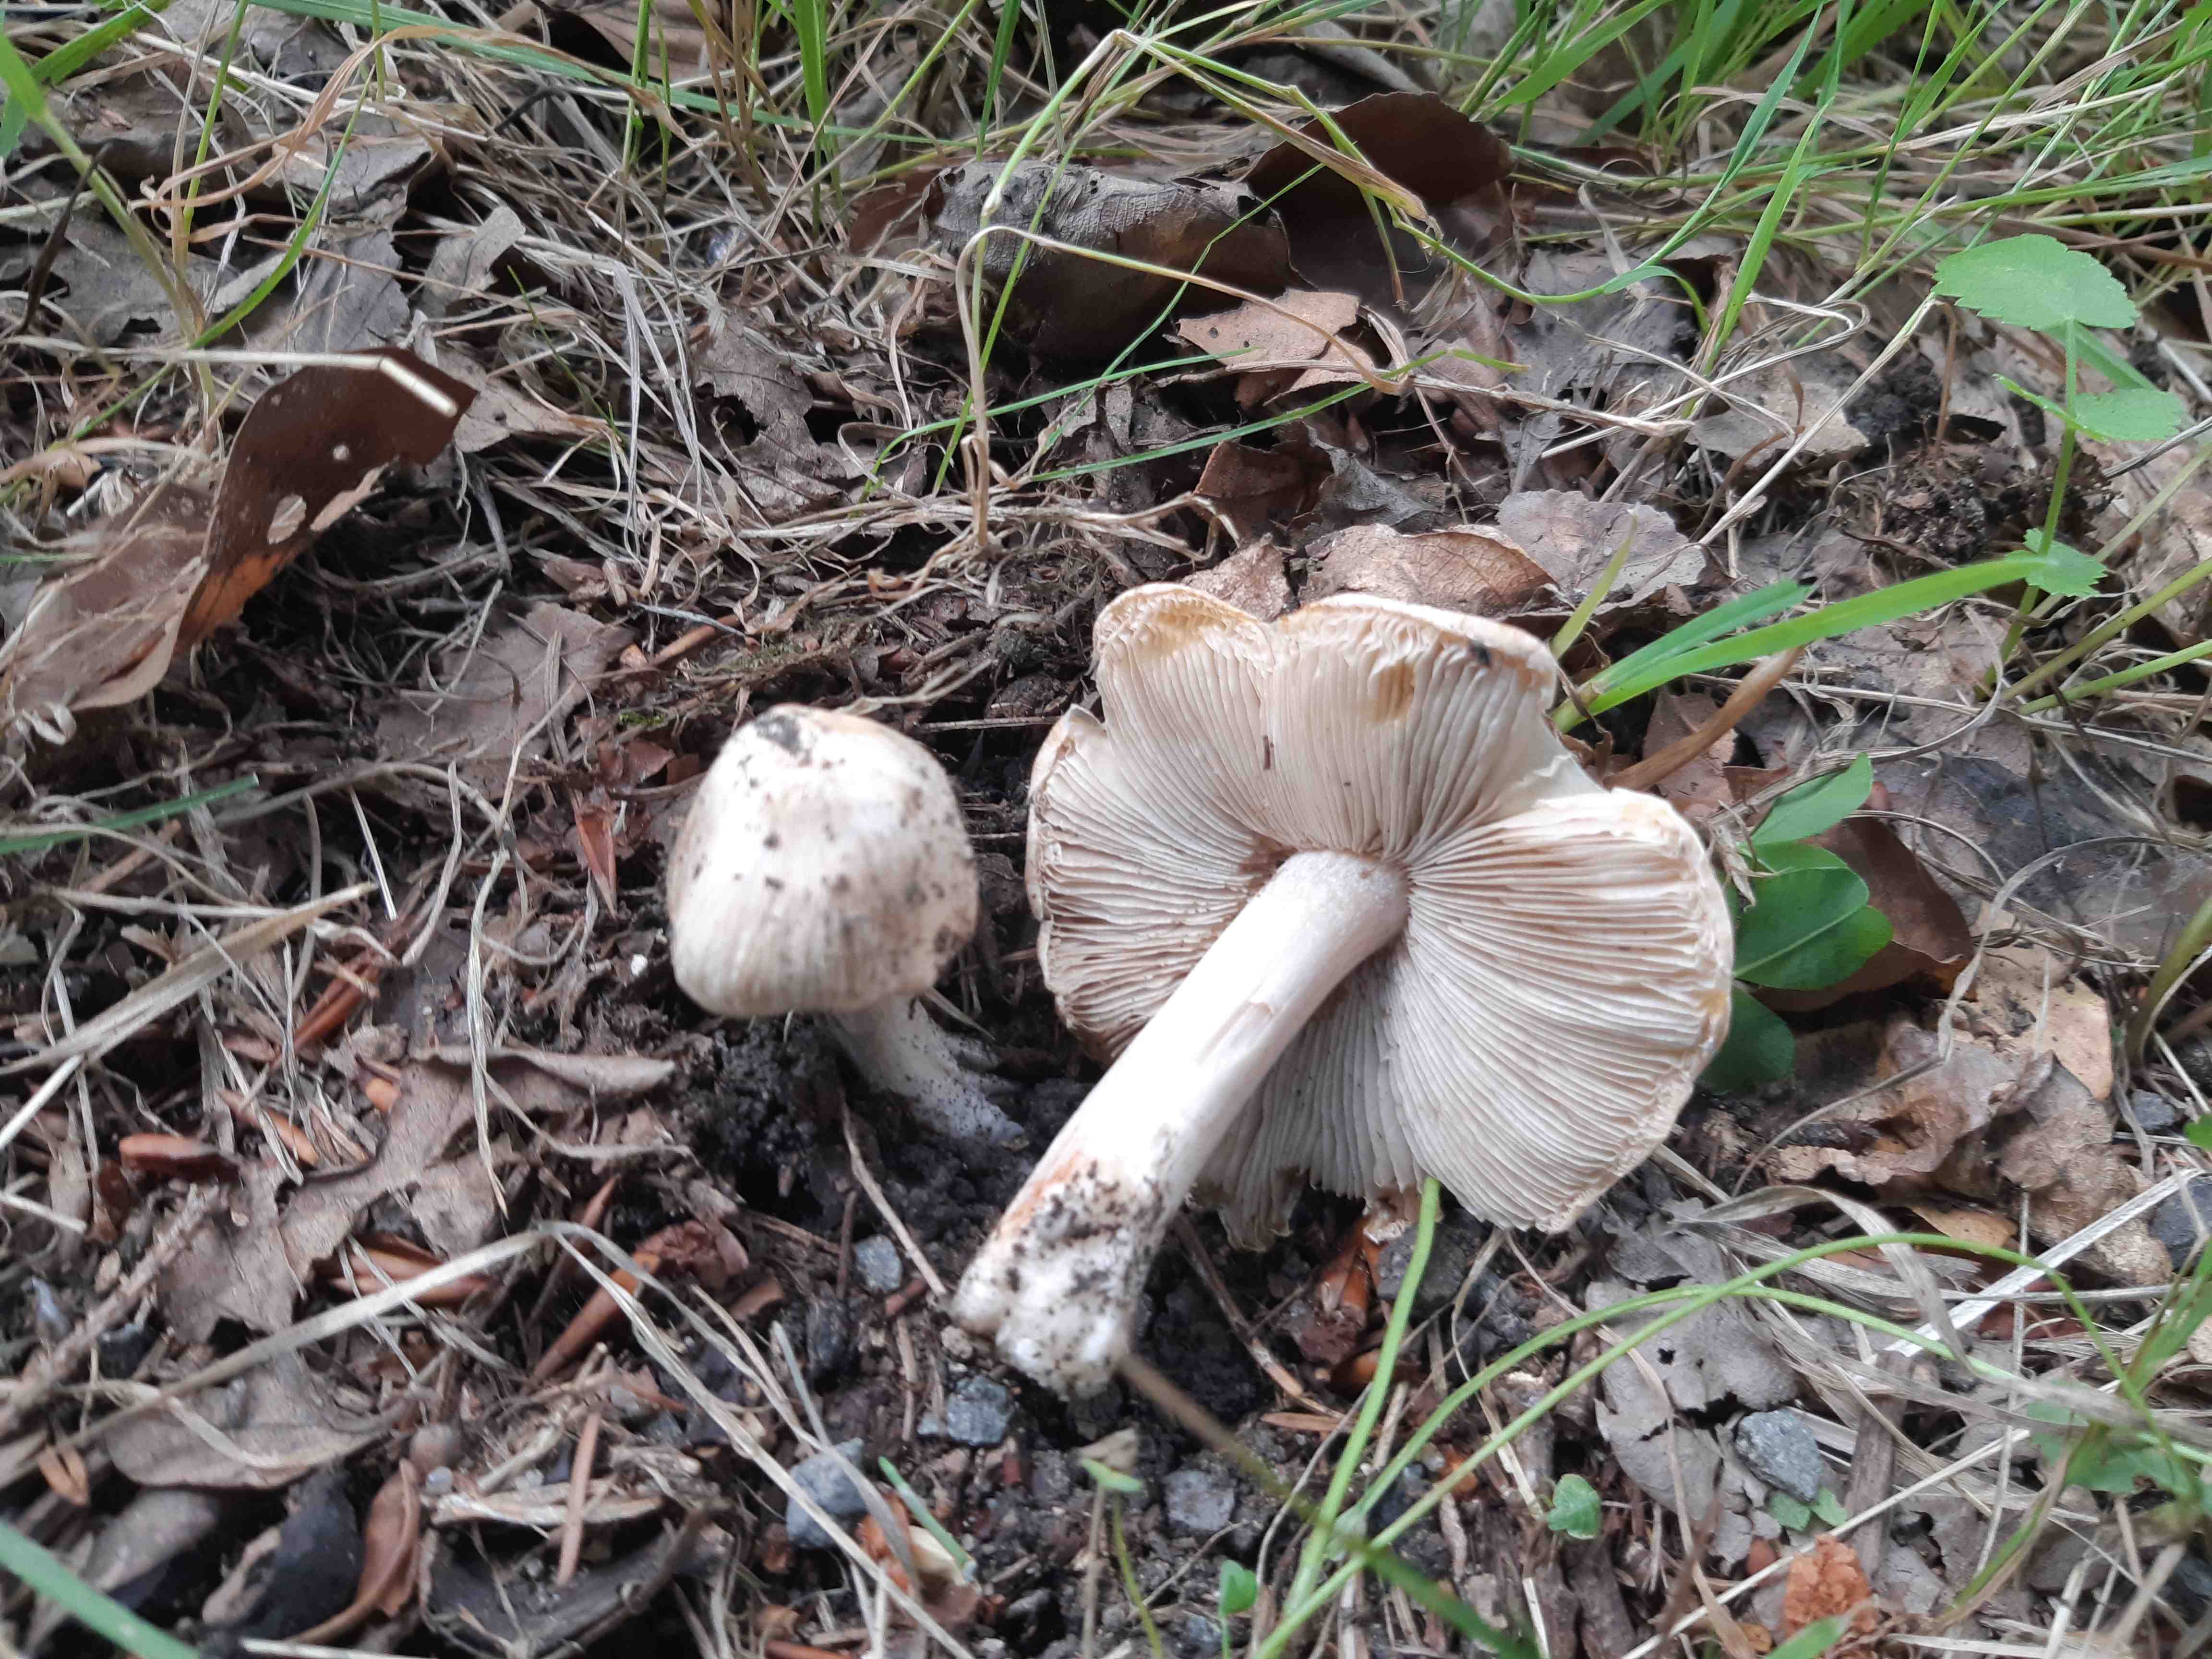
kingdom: Fungi
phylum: Basidiomycota
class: Agaricomycetes
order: Agaricales
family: Inocybaceae
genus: Inosperma
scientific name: Inosperma erubescens
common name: giftig trævlhat
